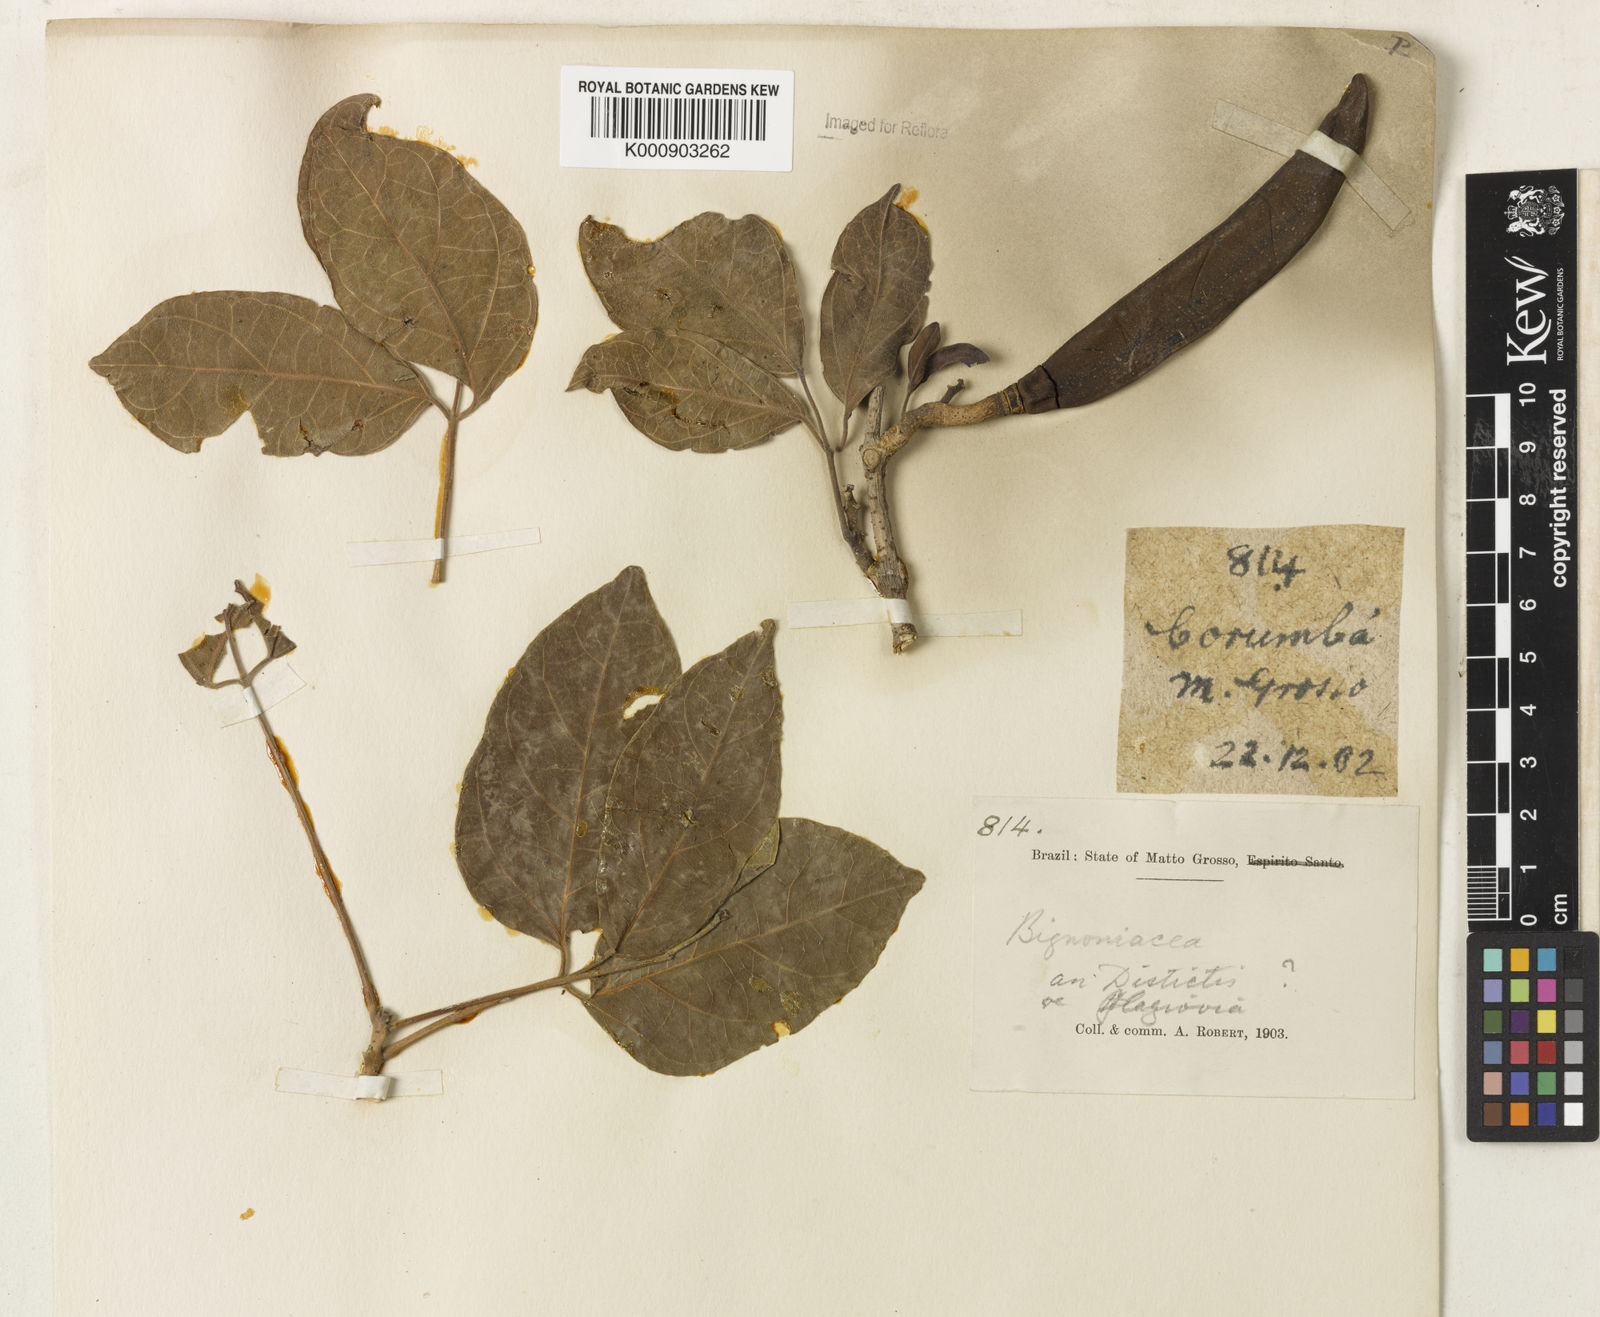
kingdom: Plantae
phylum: Tracheophyta
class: Magnoliopsida
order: Lamiales
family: Bignoniaceae
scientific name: Bignoniaceae
